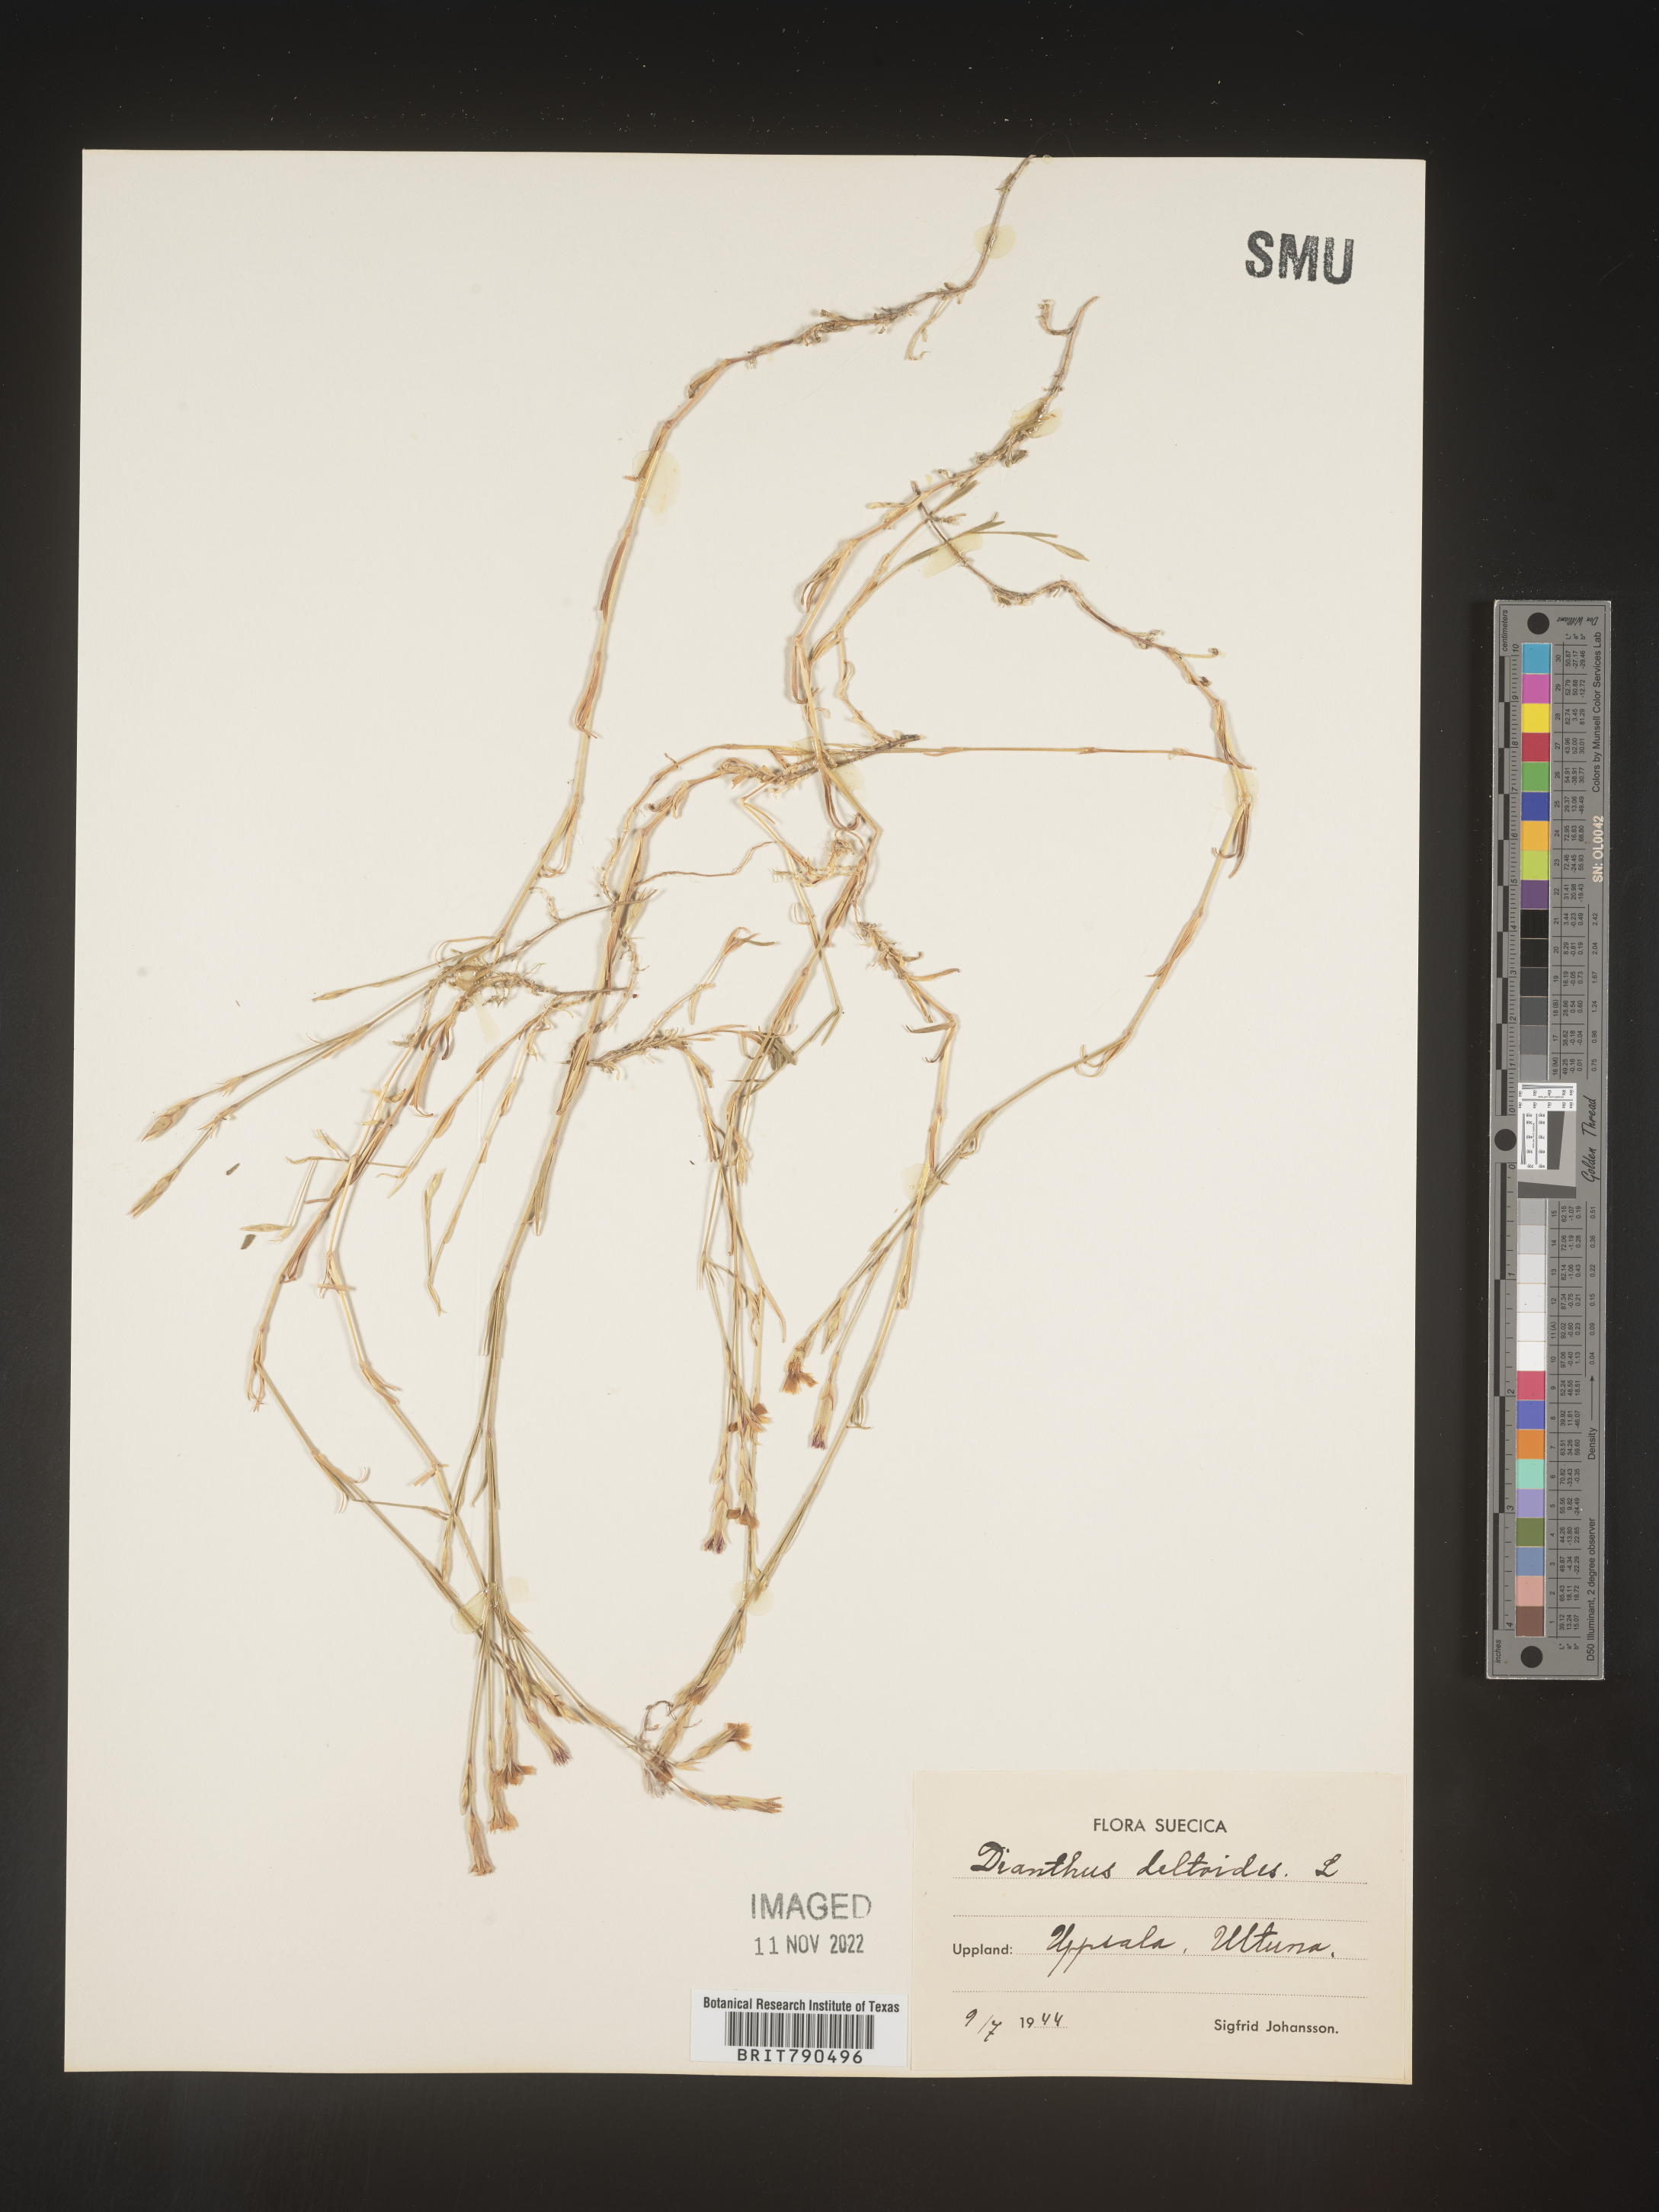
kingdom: Plantae
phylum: Tracheophyta
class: Magnoliopsida
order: Caryophyllales
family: Caryophyllaceae
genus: Dianthus
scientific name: Dianthus deltoides
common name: Maiden pink
